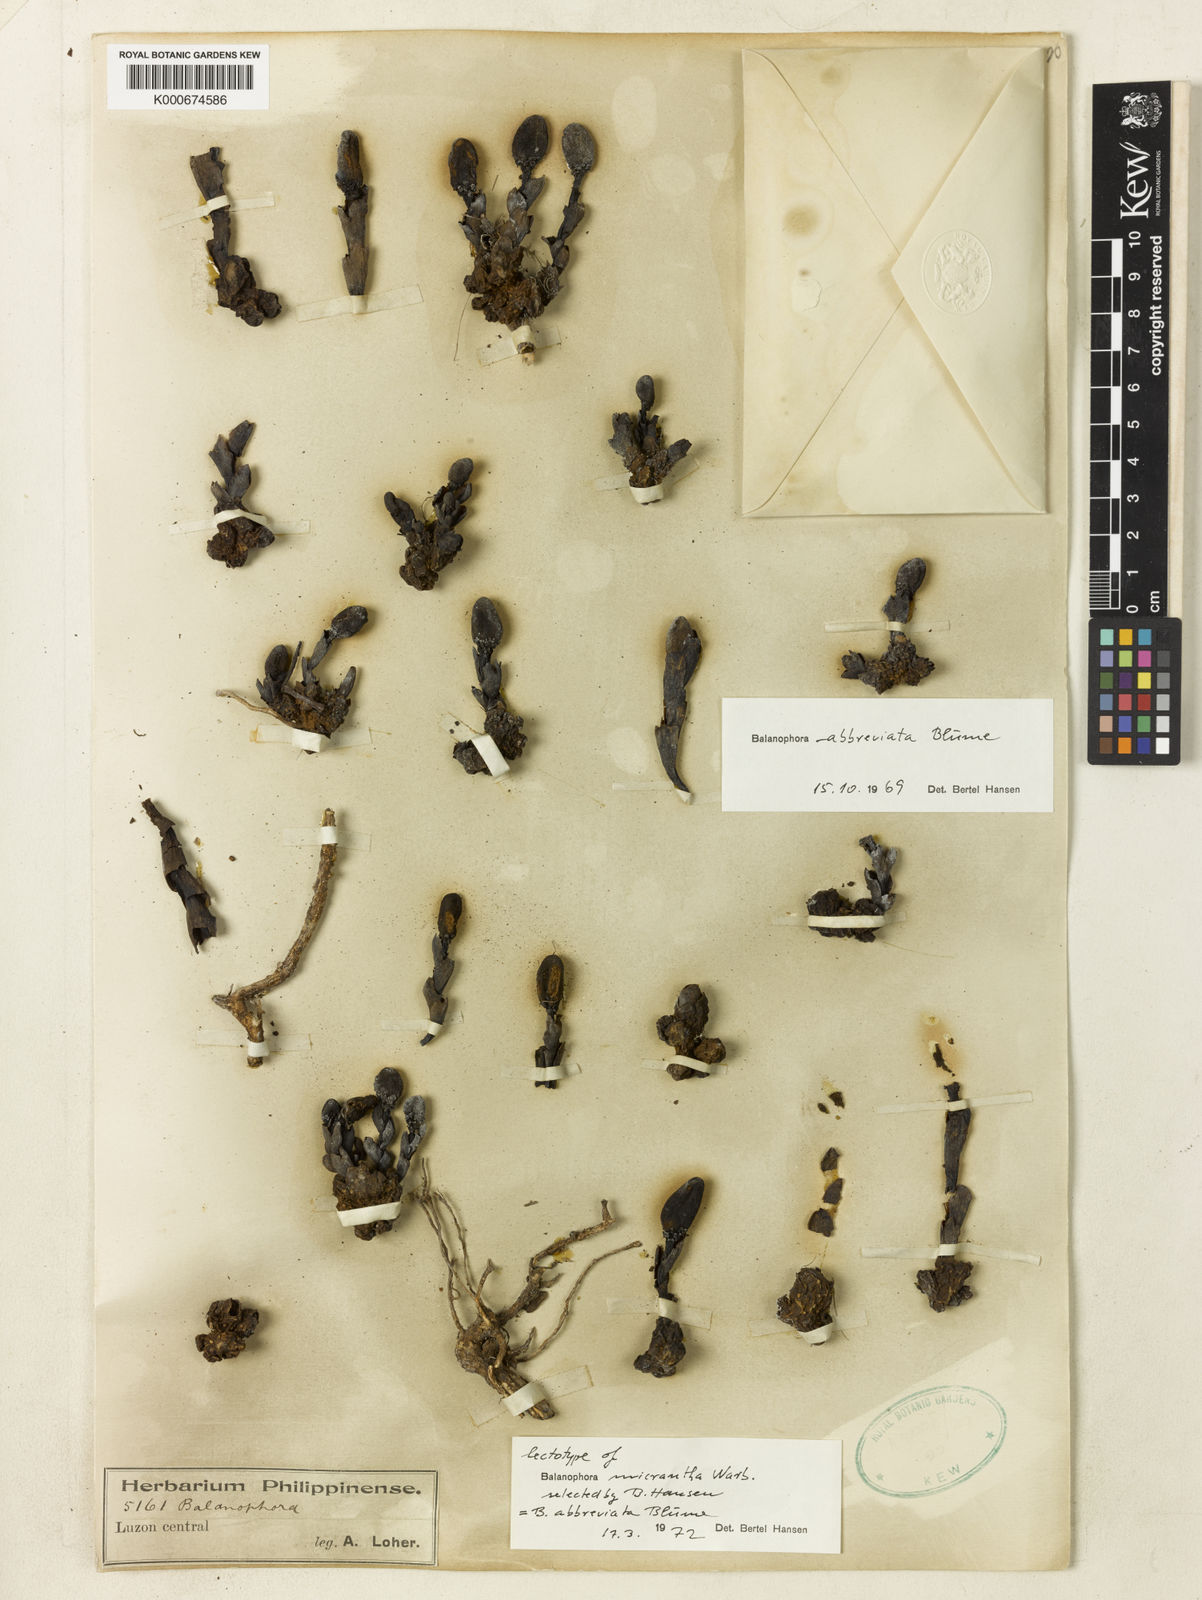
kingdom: Plantae
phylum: Tracheophyta
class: Magnoliopsida
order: Santalales
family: Balanophoraceae
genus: Balanophora
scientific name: Balanophora abbreviata
